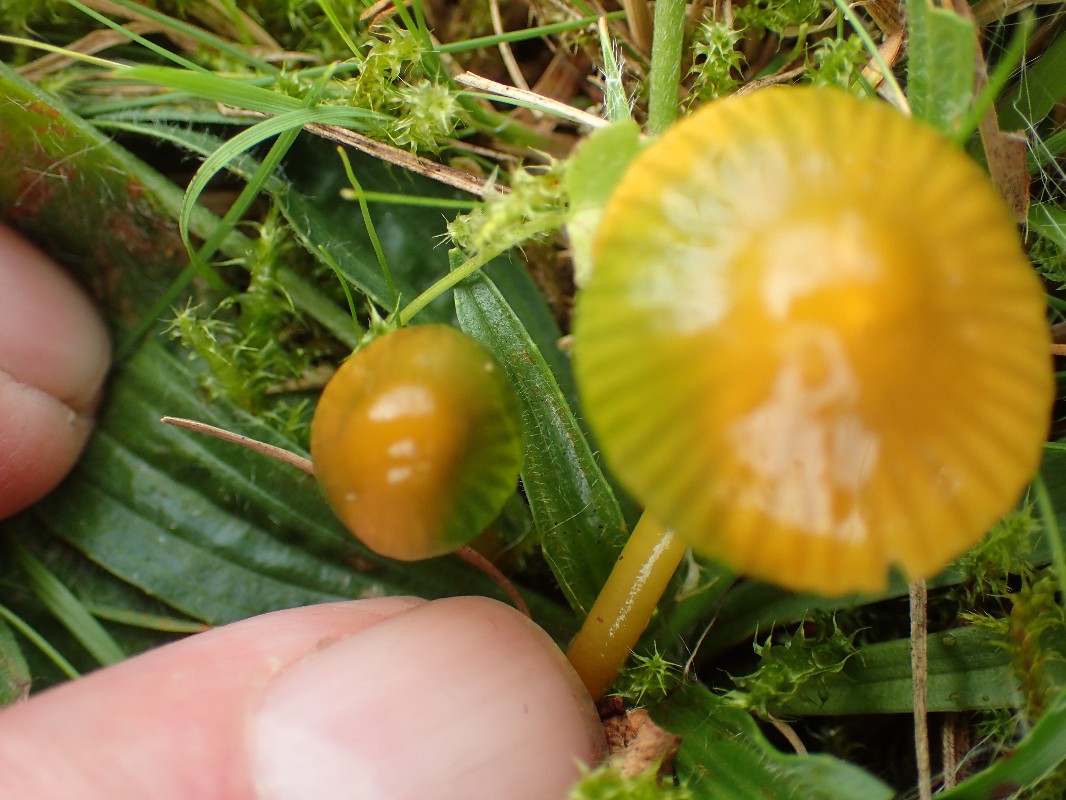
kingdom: Fungi
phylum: Basidiomycota
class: Agaricomycetes
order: Agaricales
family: Hygrophoraceae
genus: Gliophorus
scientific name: Gliophorus psittacinus
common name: papegøje-vokshat
